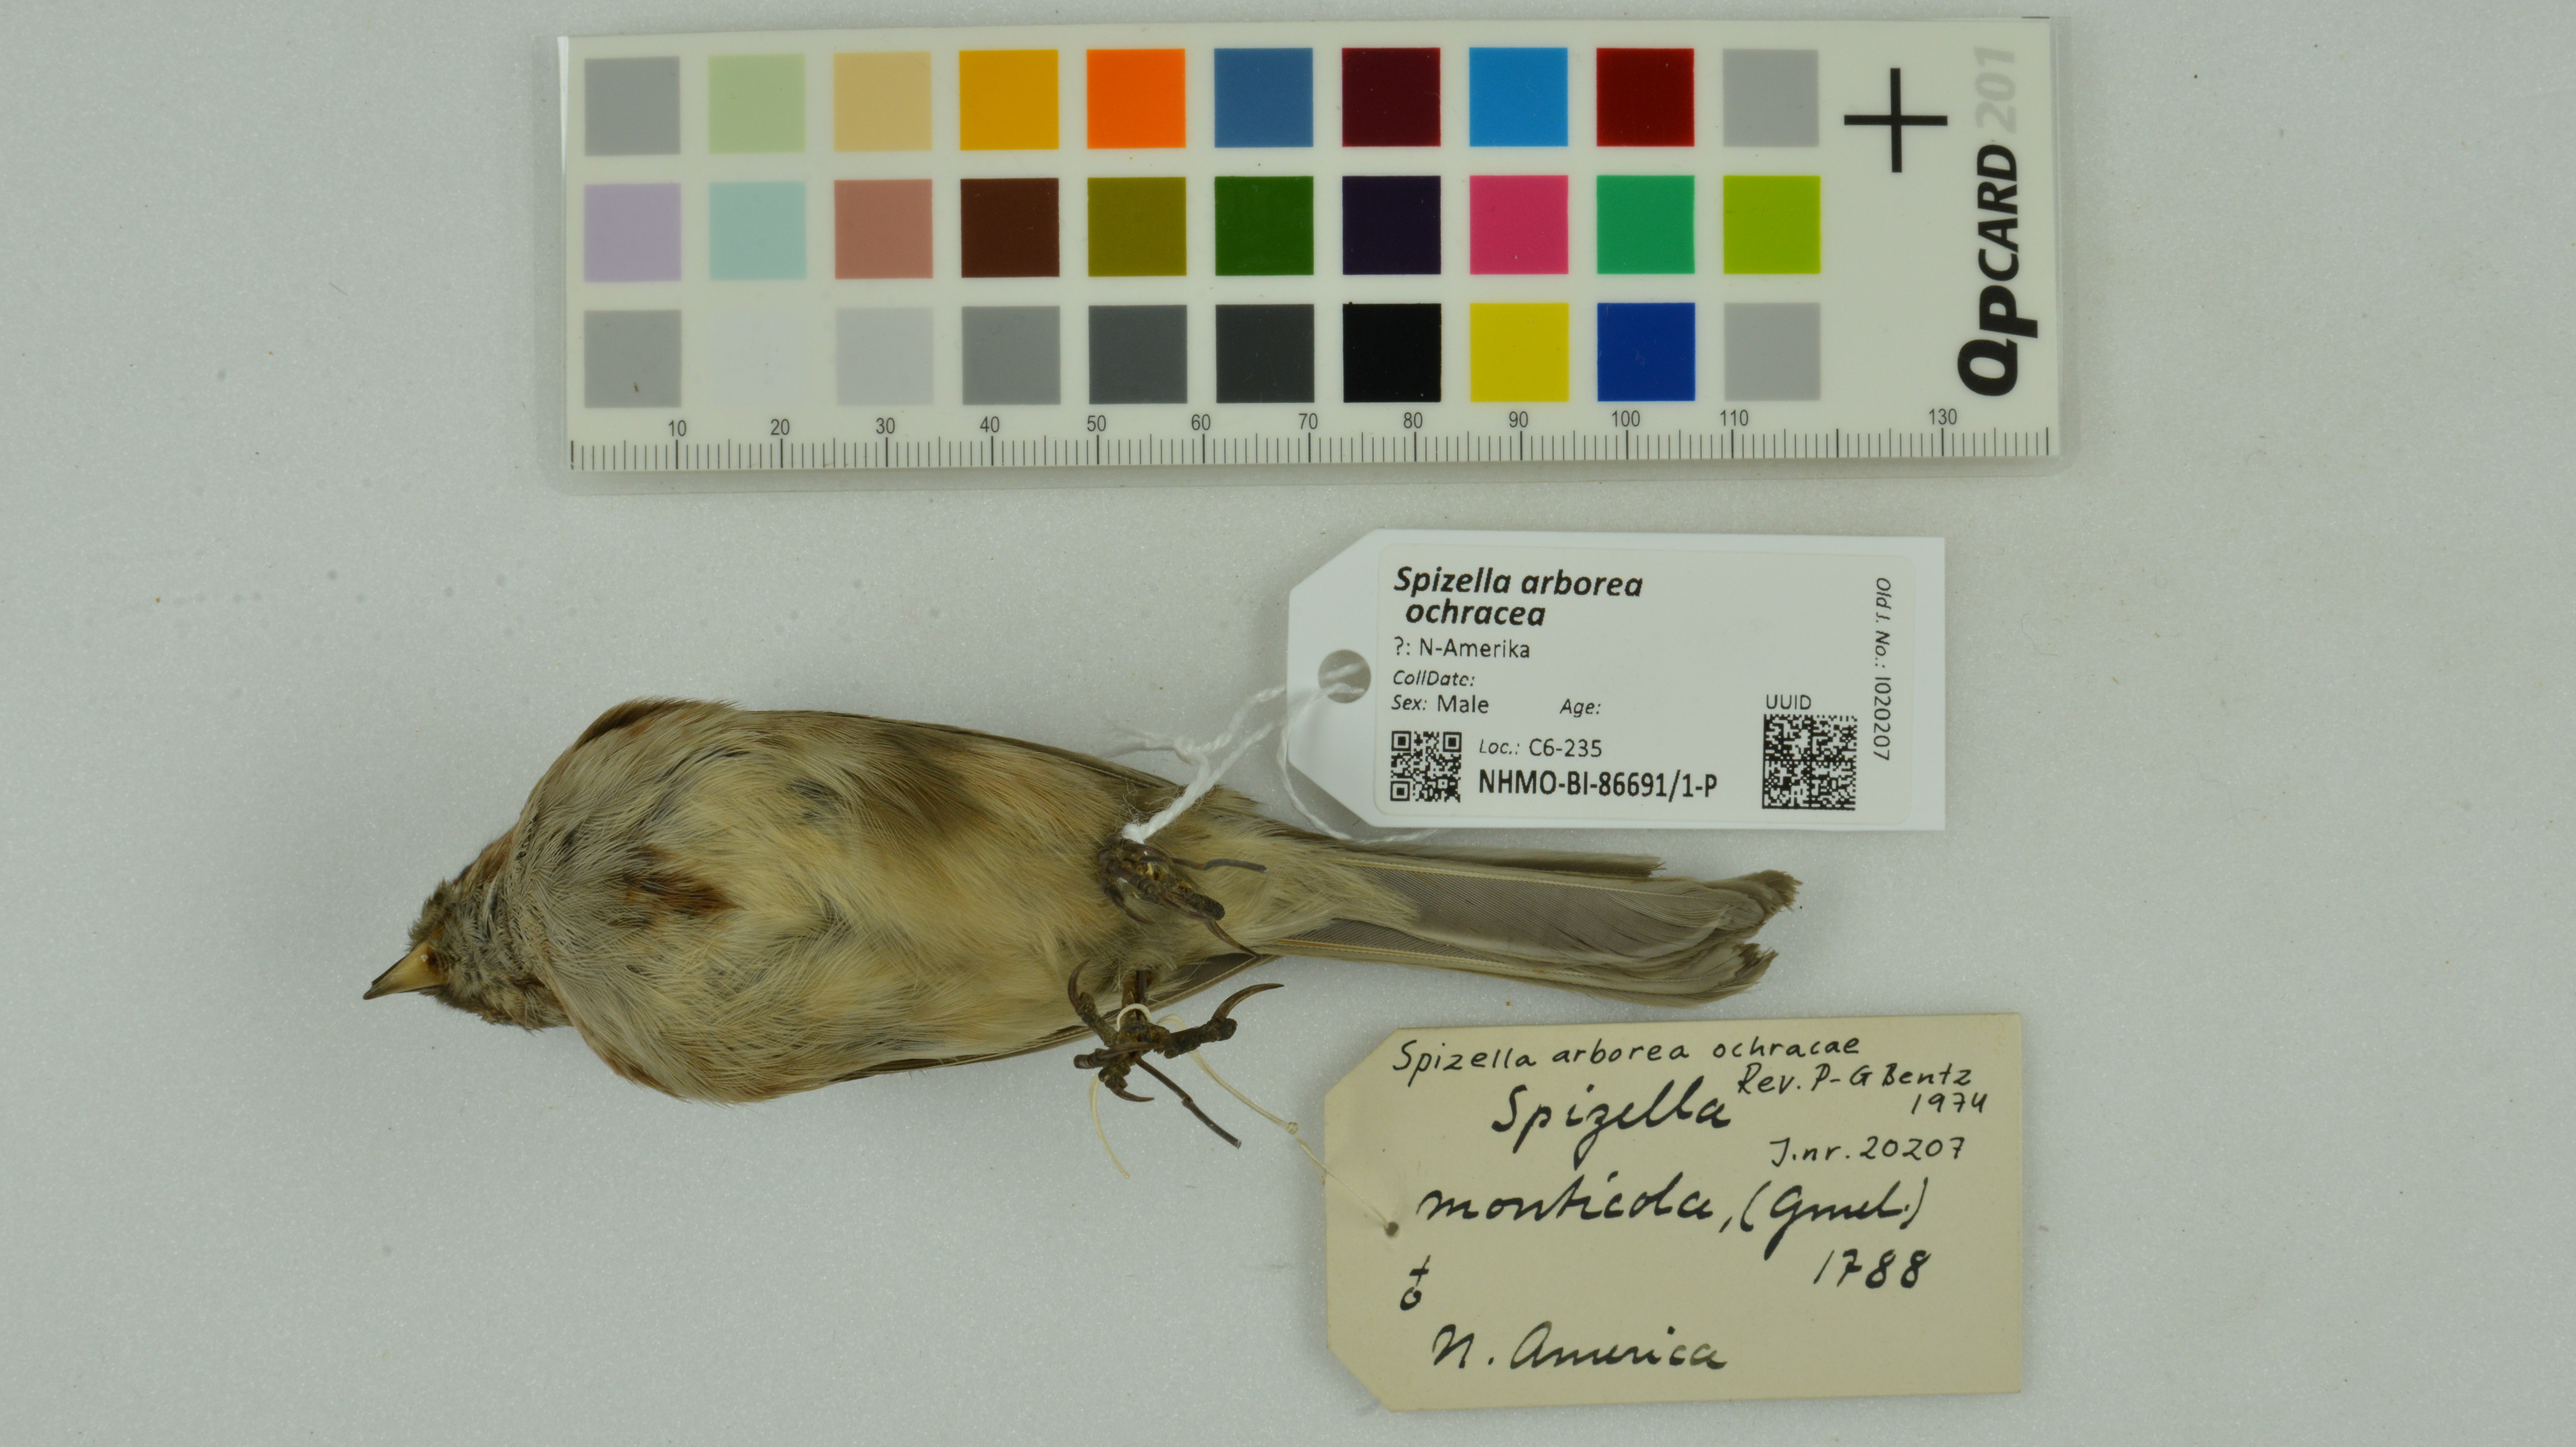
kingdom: Animalia
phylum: Chordata
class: Aves
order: Passeriformes
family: Passerellidae
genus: Spizelloides
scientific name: Spizelloides arborea
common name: American tree sparrow
